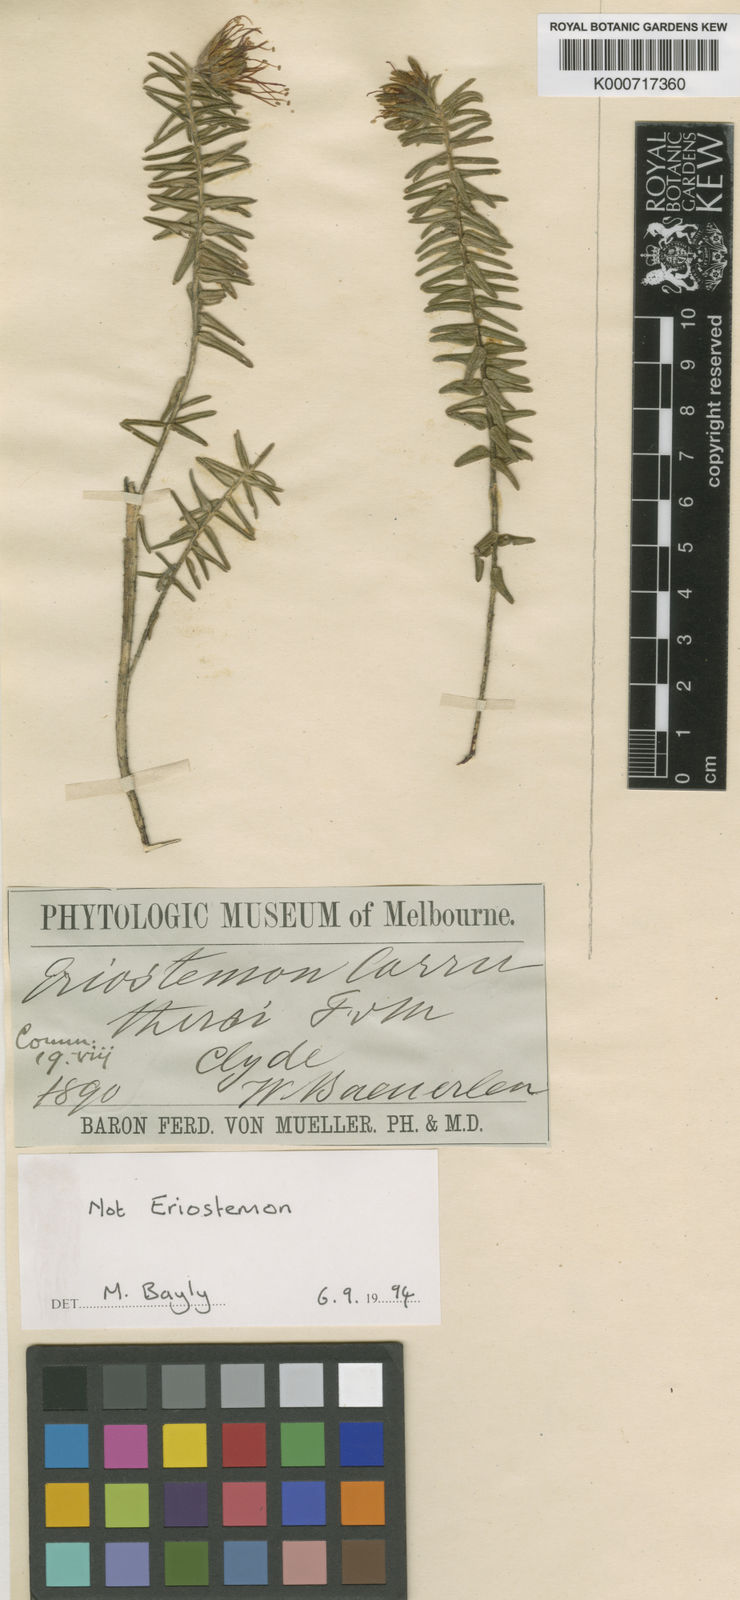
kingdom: Plantae
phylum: Tracheophyta
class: Magnoliopsida
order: Sapindales
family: Rutaceae
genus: Leionema
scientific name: Leionema carruthersii
